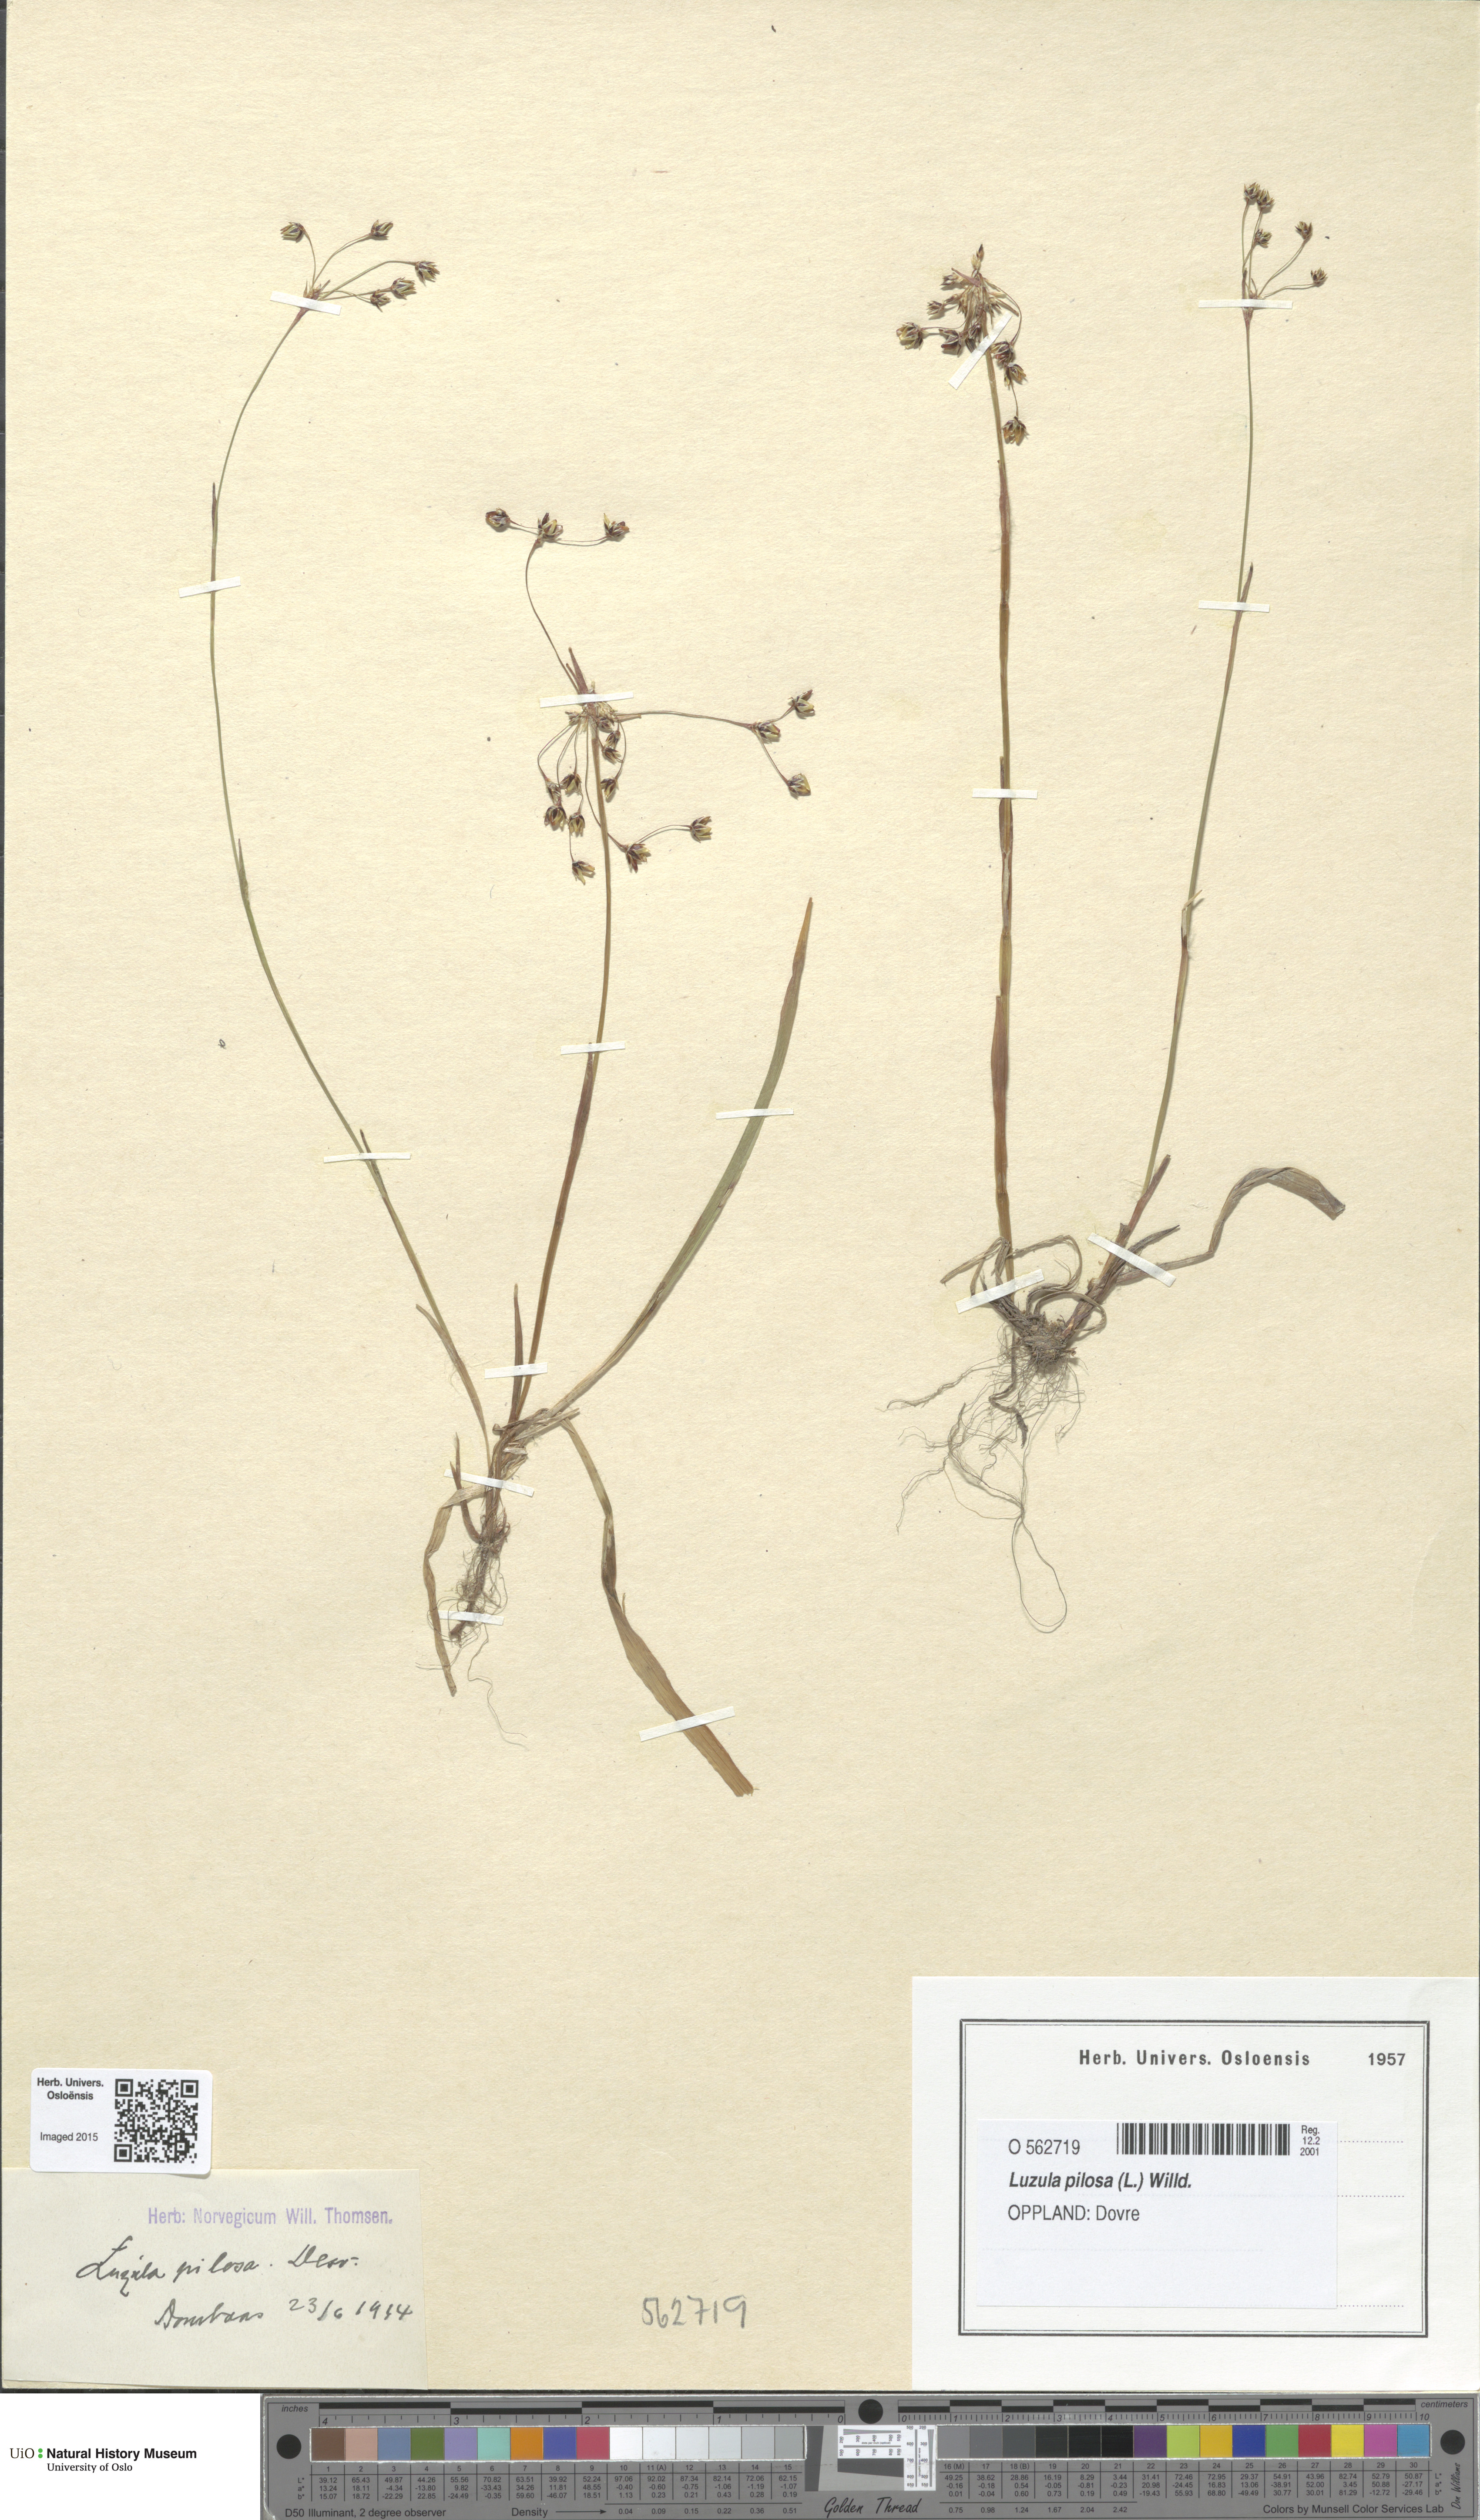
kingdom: Plantae
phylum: Tracheophyta
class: Liliopsida
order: Poales
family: Juncaceae
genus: Luzula
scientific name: Luzula pilosa
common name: Hairy wood-rush
